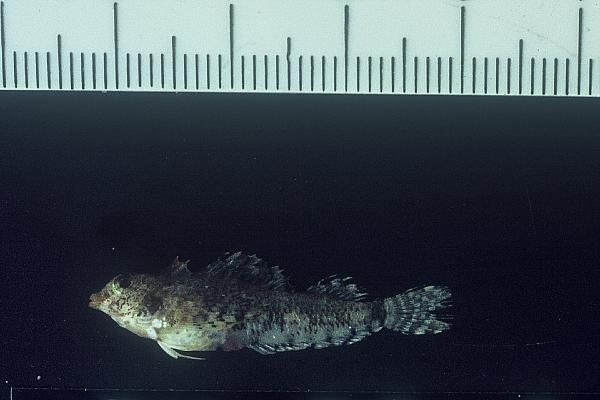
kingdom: Animalia
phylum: Chordata
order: Perciformes
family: Tripterygiidae
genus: Helcogramma
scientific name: Helcogramma rharhabe
